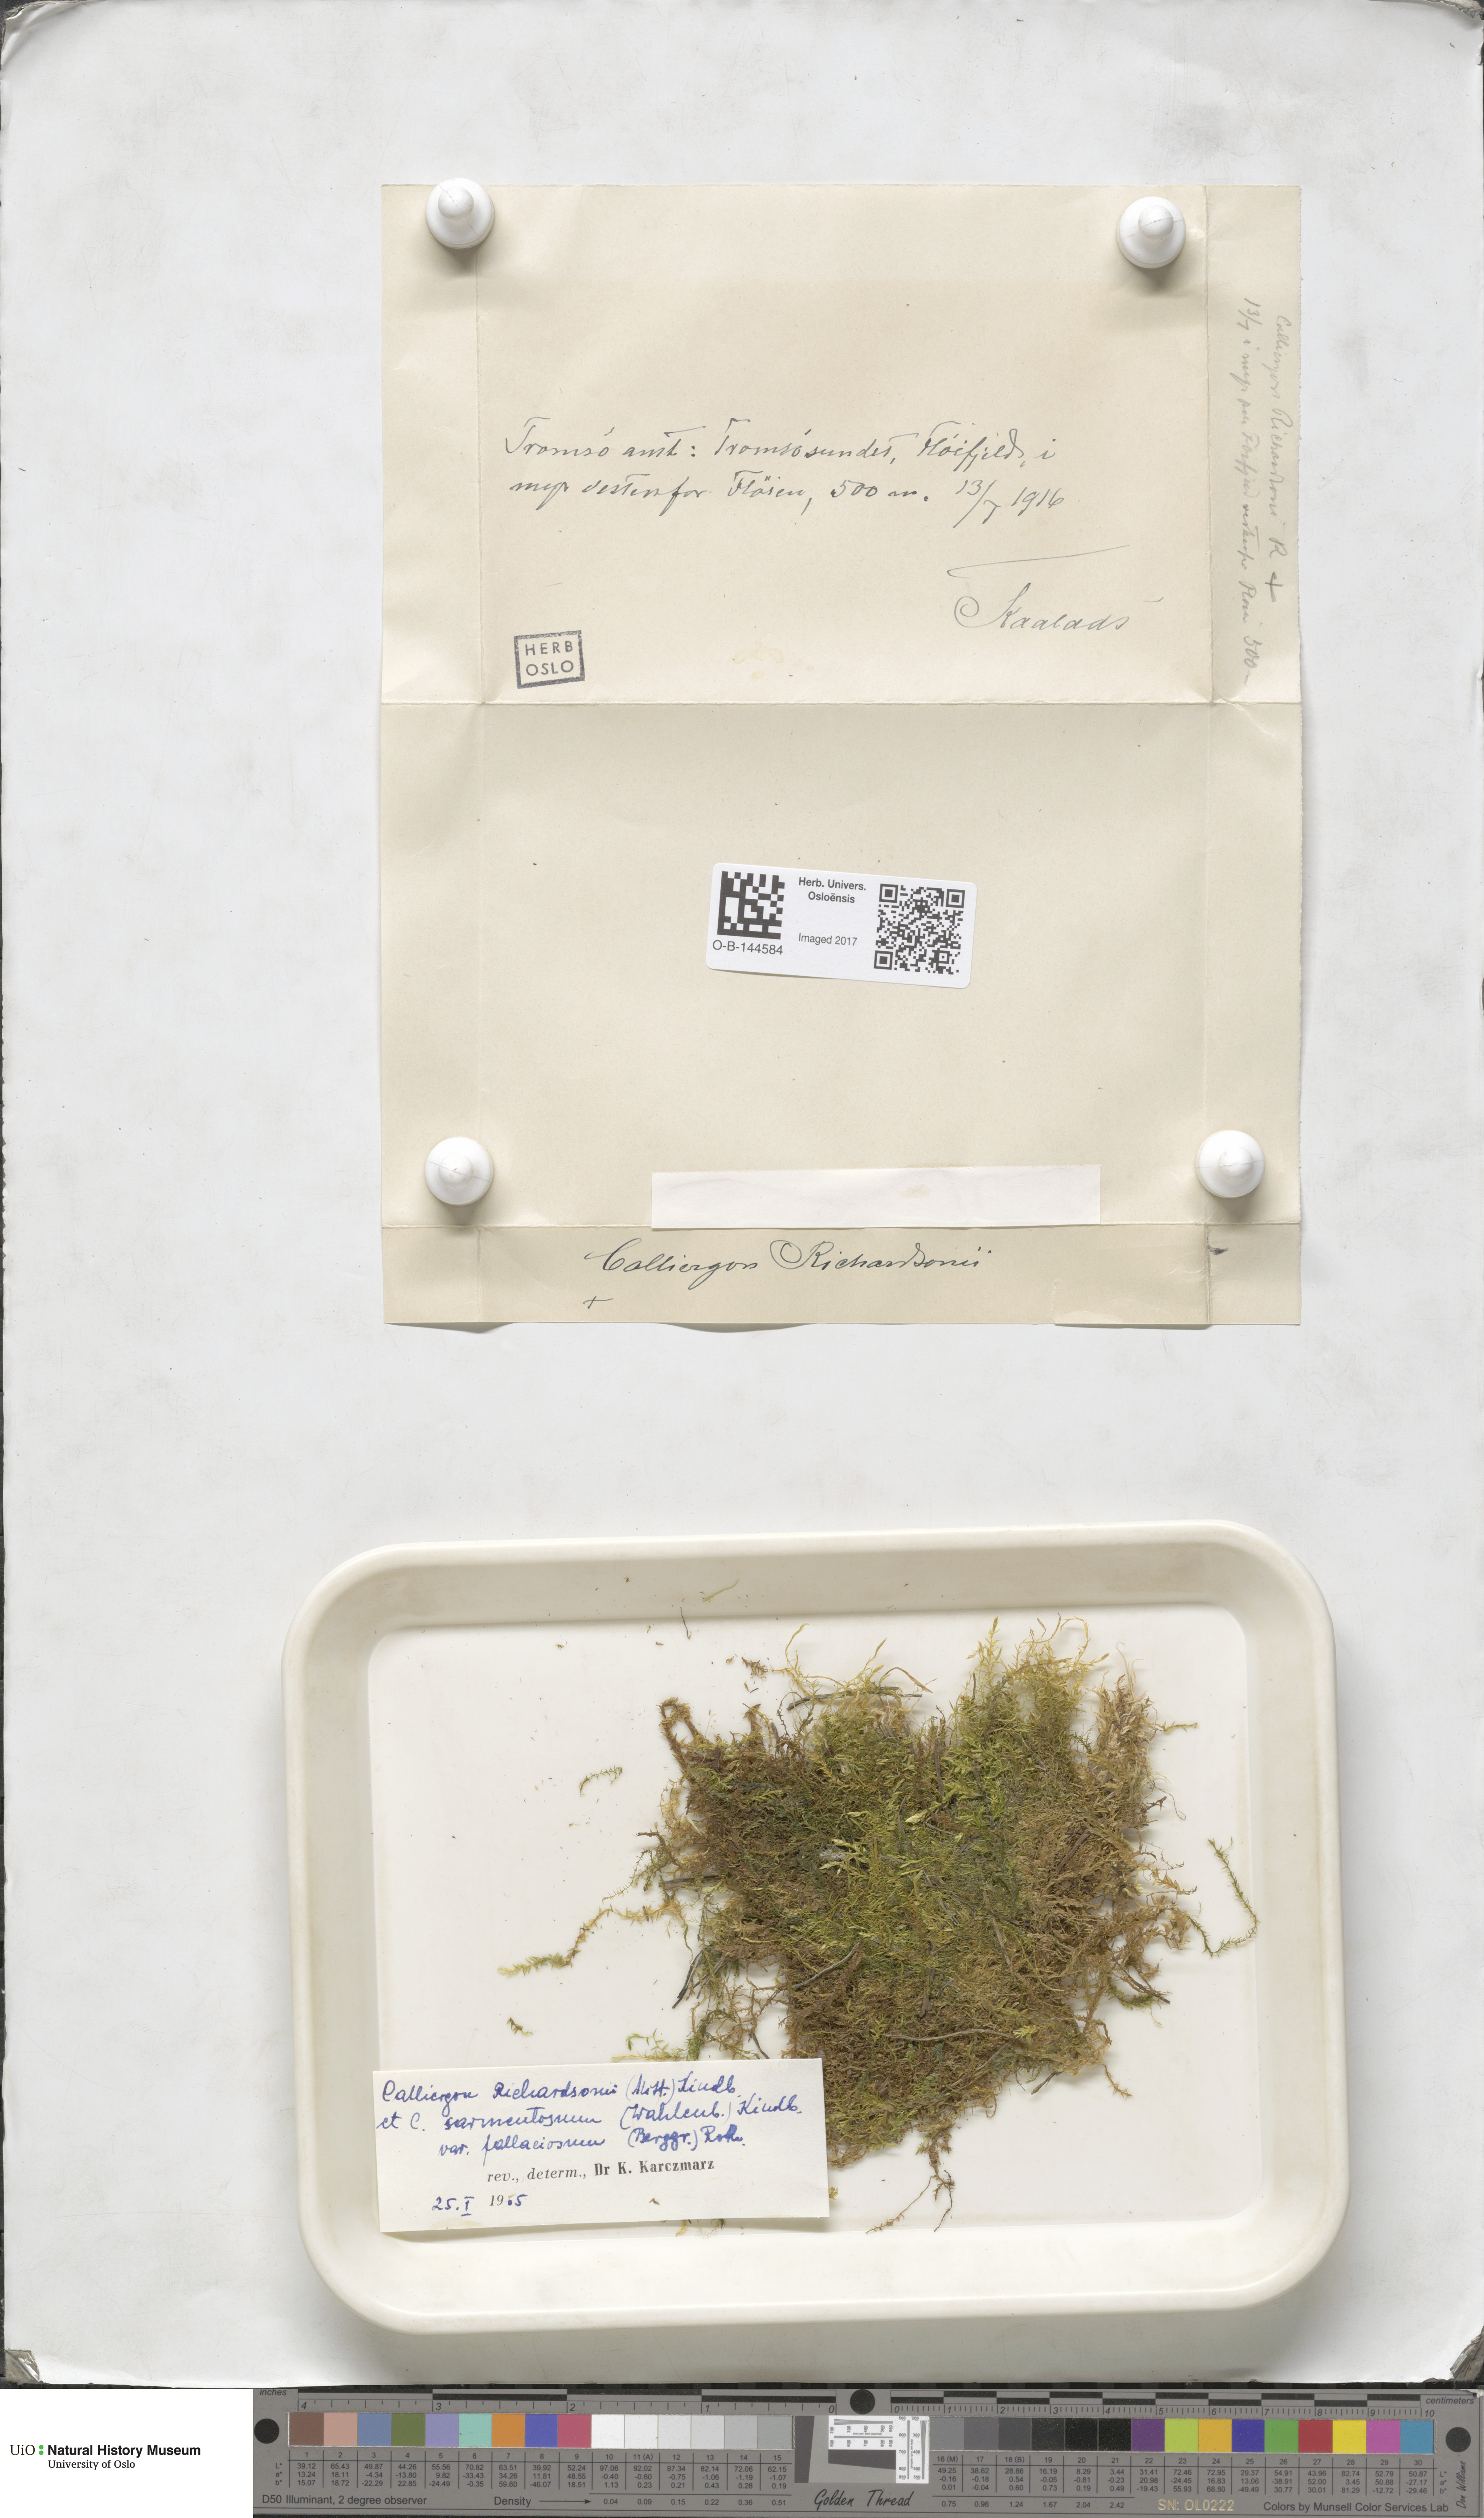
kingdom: Plantae
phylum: Bryophyta
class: Bryopsida
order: Hypnales
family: Calliergonaceae
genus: Calliergon
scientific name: Calliergon richardsonii
